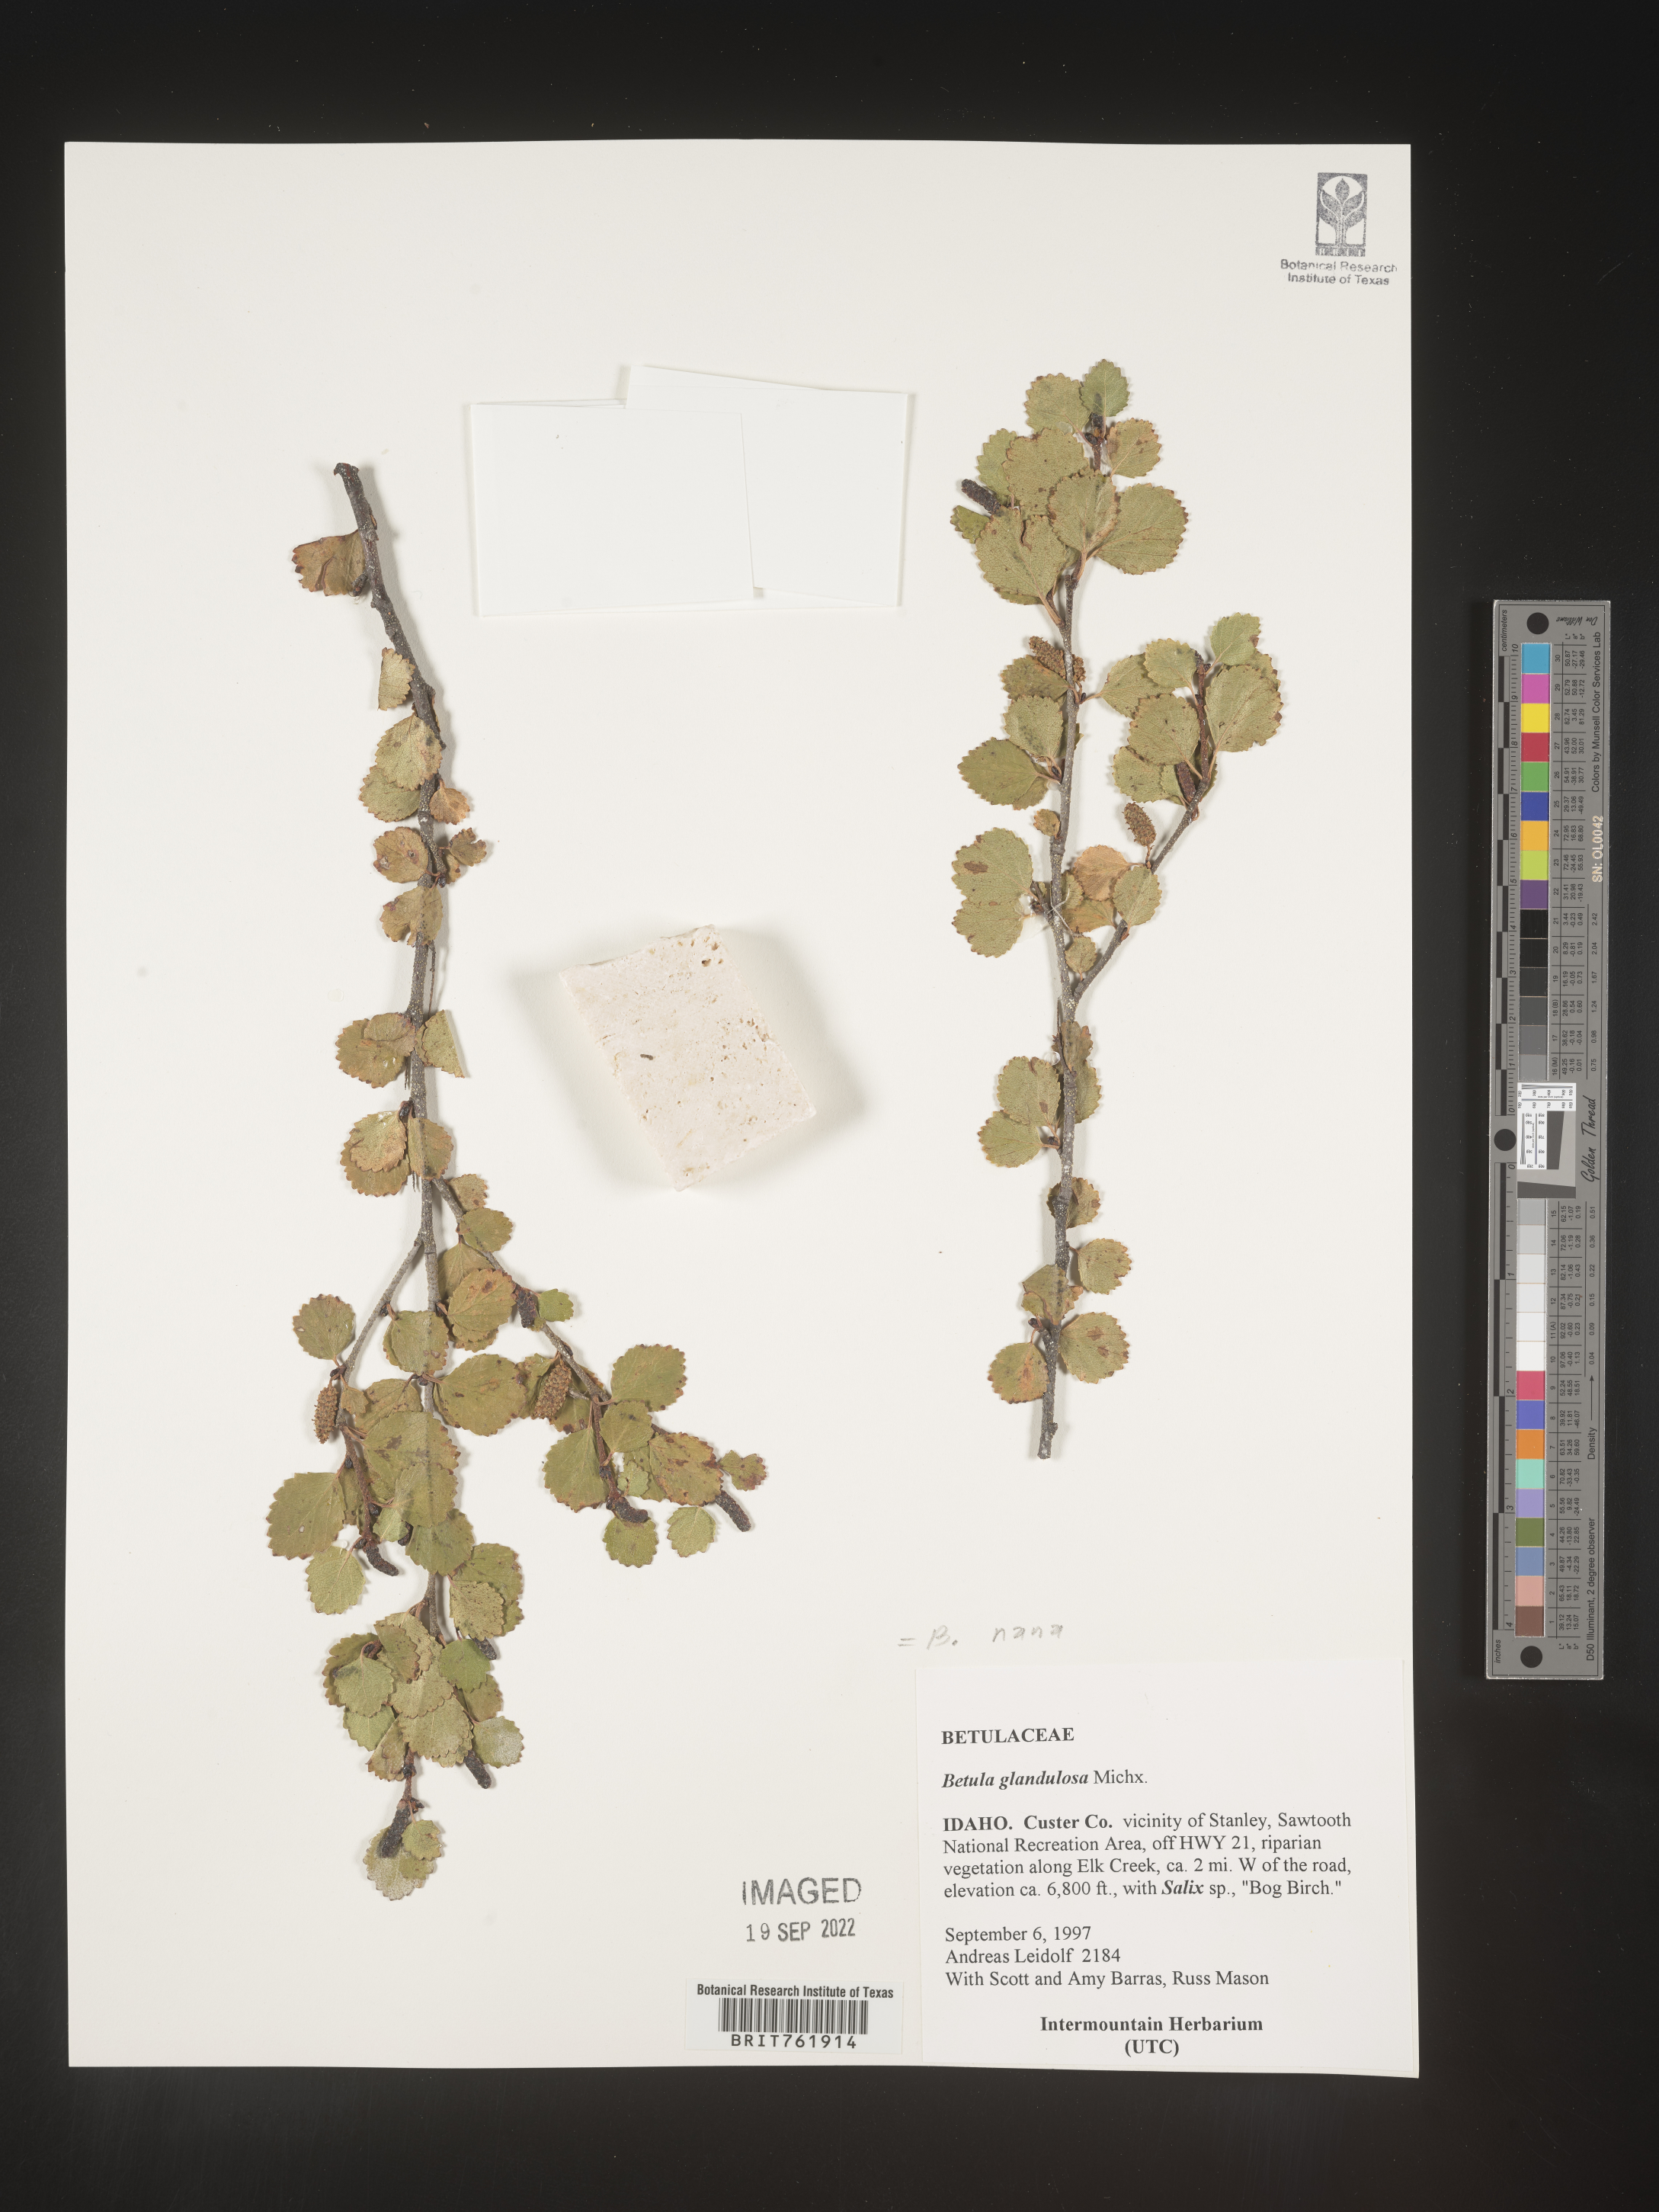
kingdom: Plantae
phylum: Tracheophyta
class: Magnoliopsida
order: Fagales
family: Betulaceae
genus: Betula
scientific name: Betula nana
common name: Arctic dwarf birch
